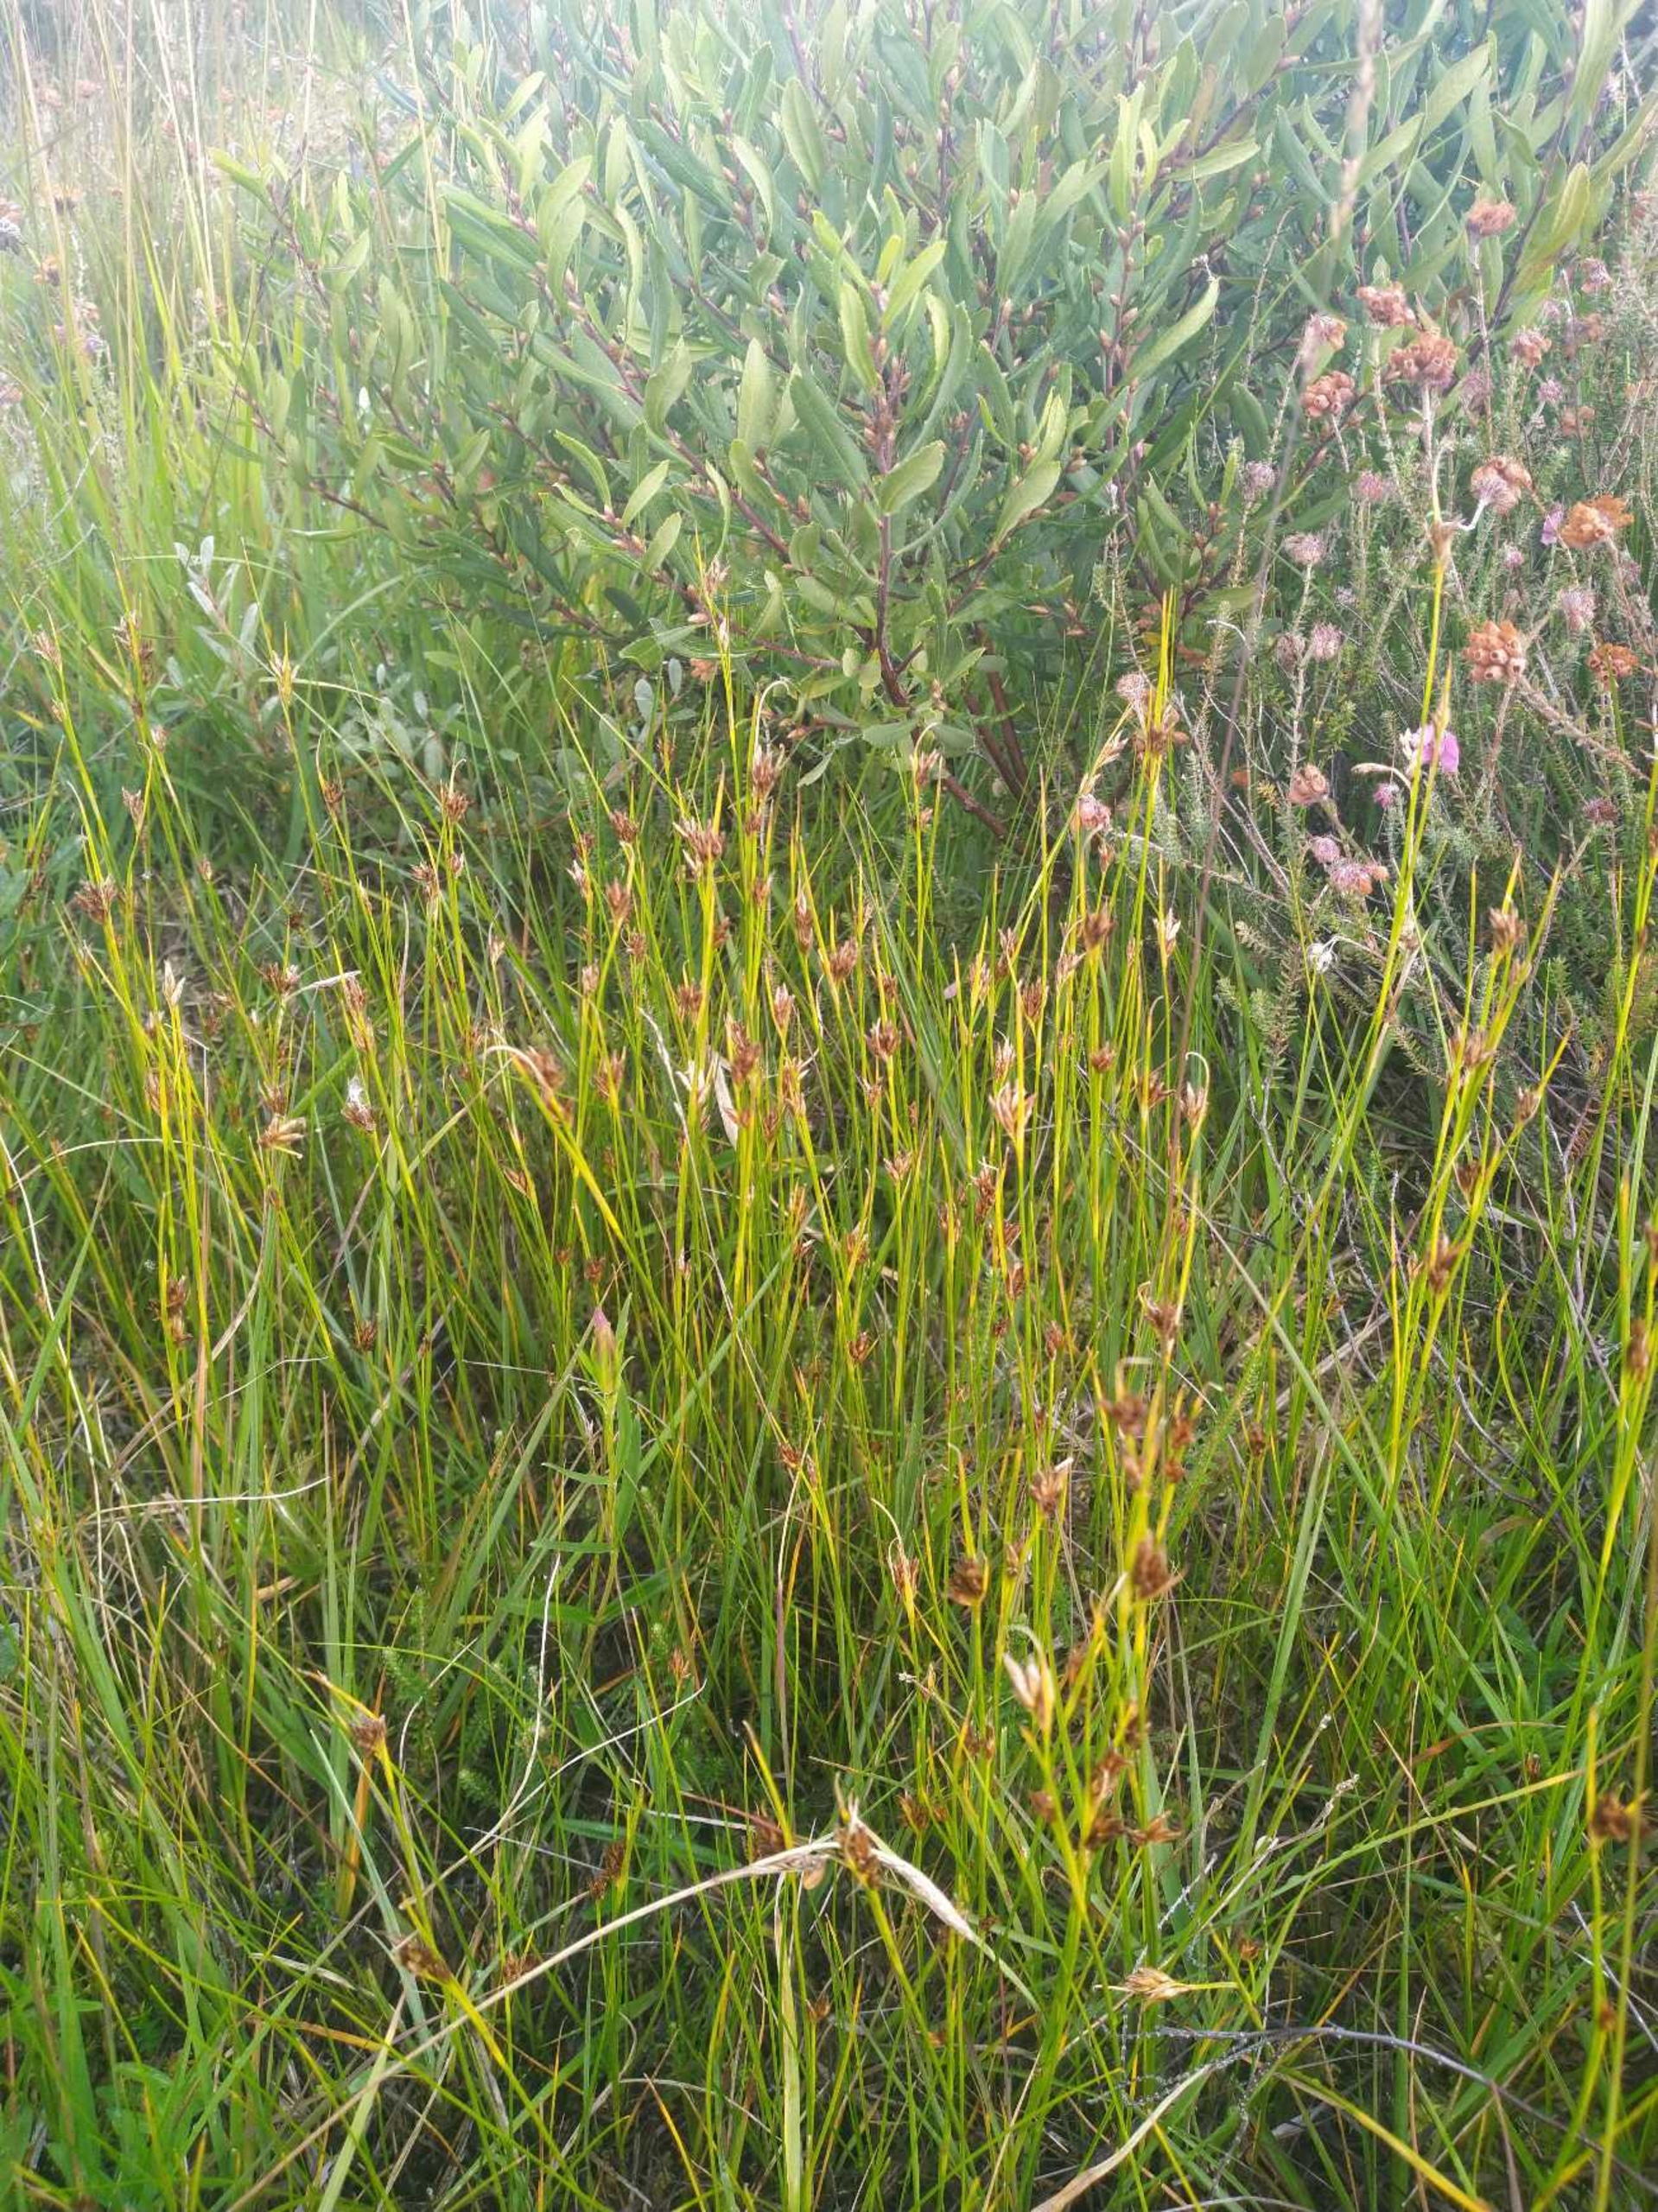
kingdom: Plantae
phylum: Tracheophyta
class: Liliopsida
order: Poales
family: Cyperaceae
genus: Rhynchospora
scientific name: Rhynchospora fusca
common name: Brun næbfrø
